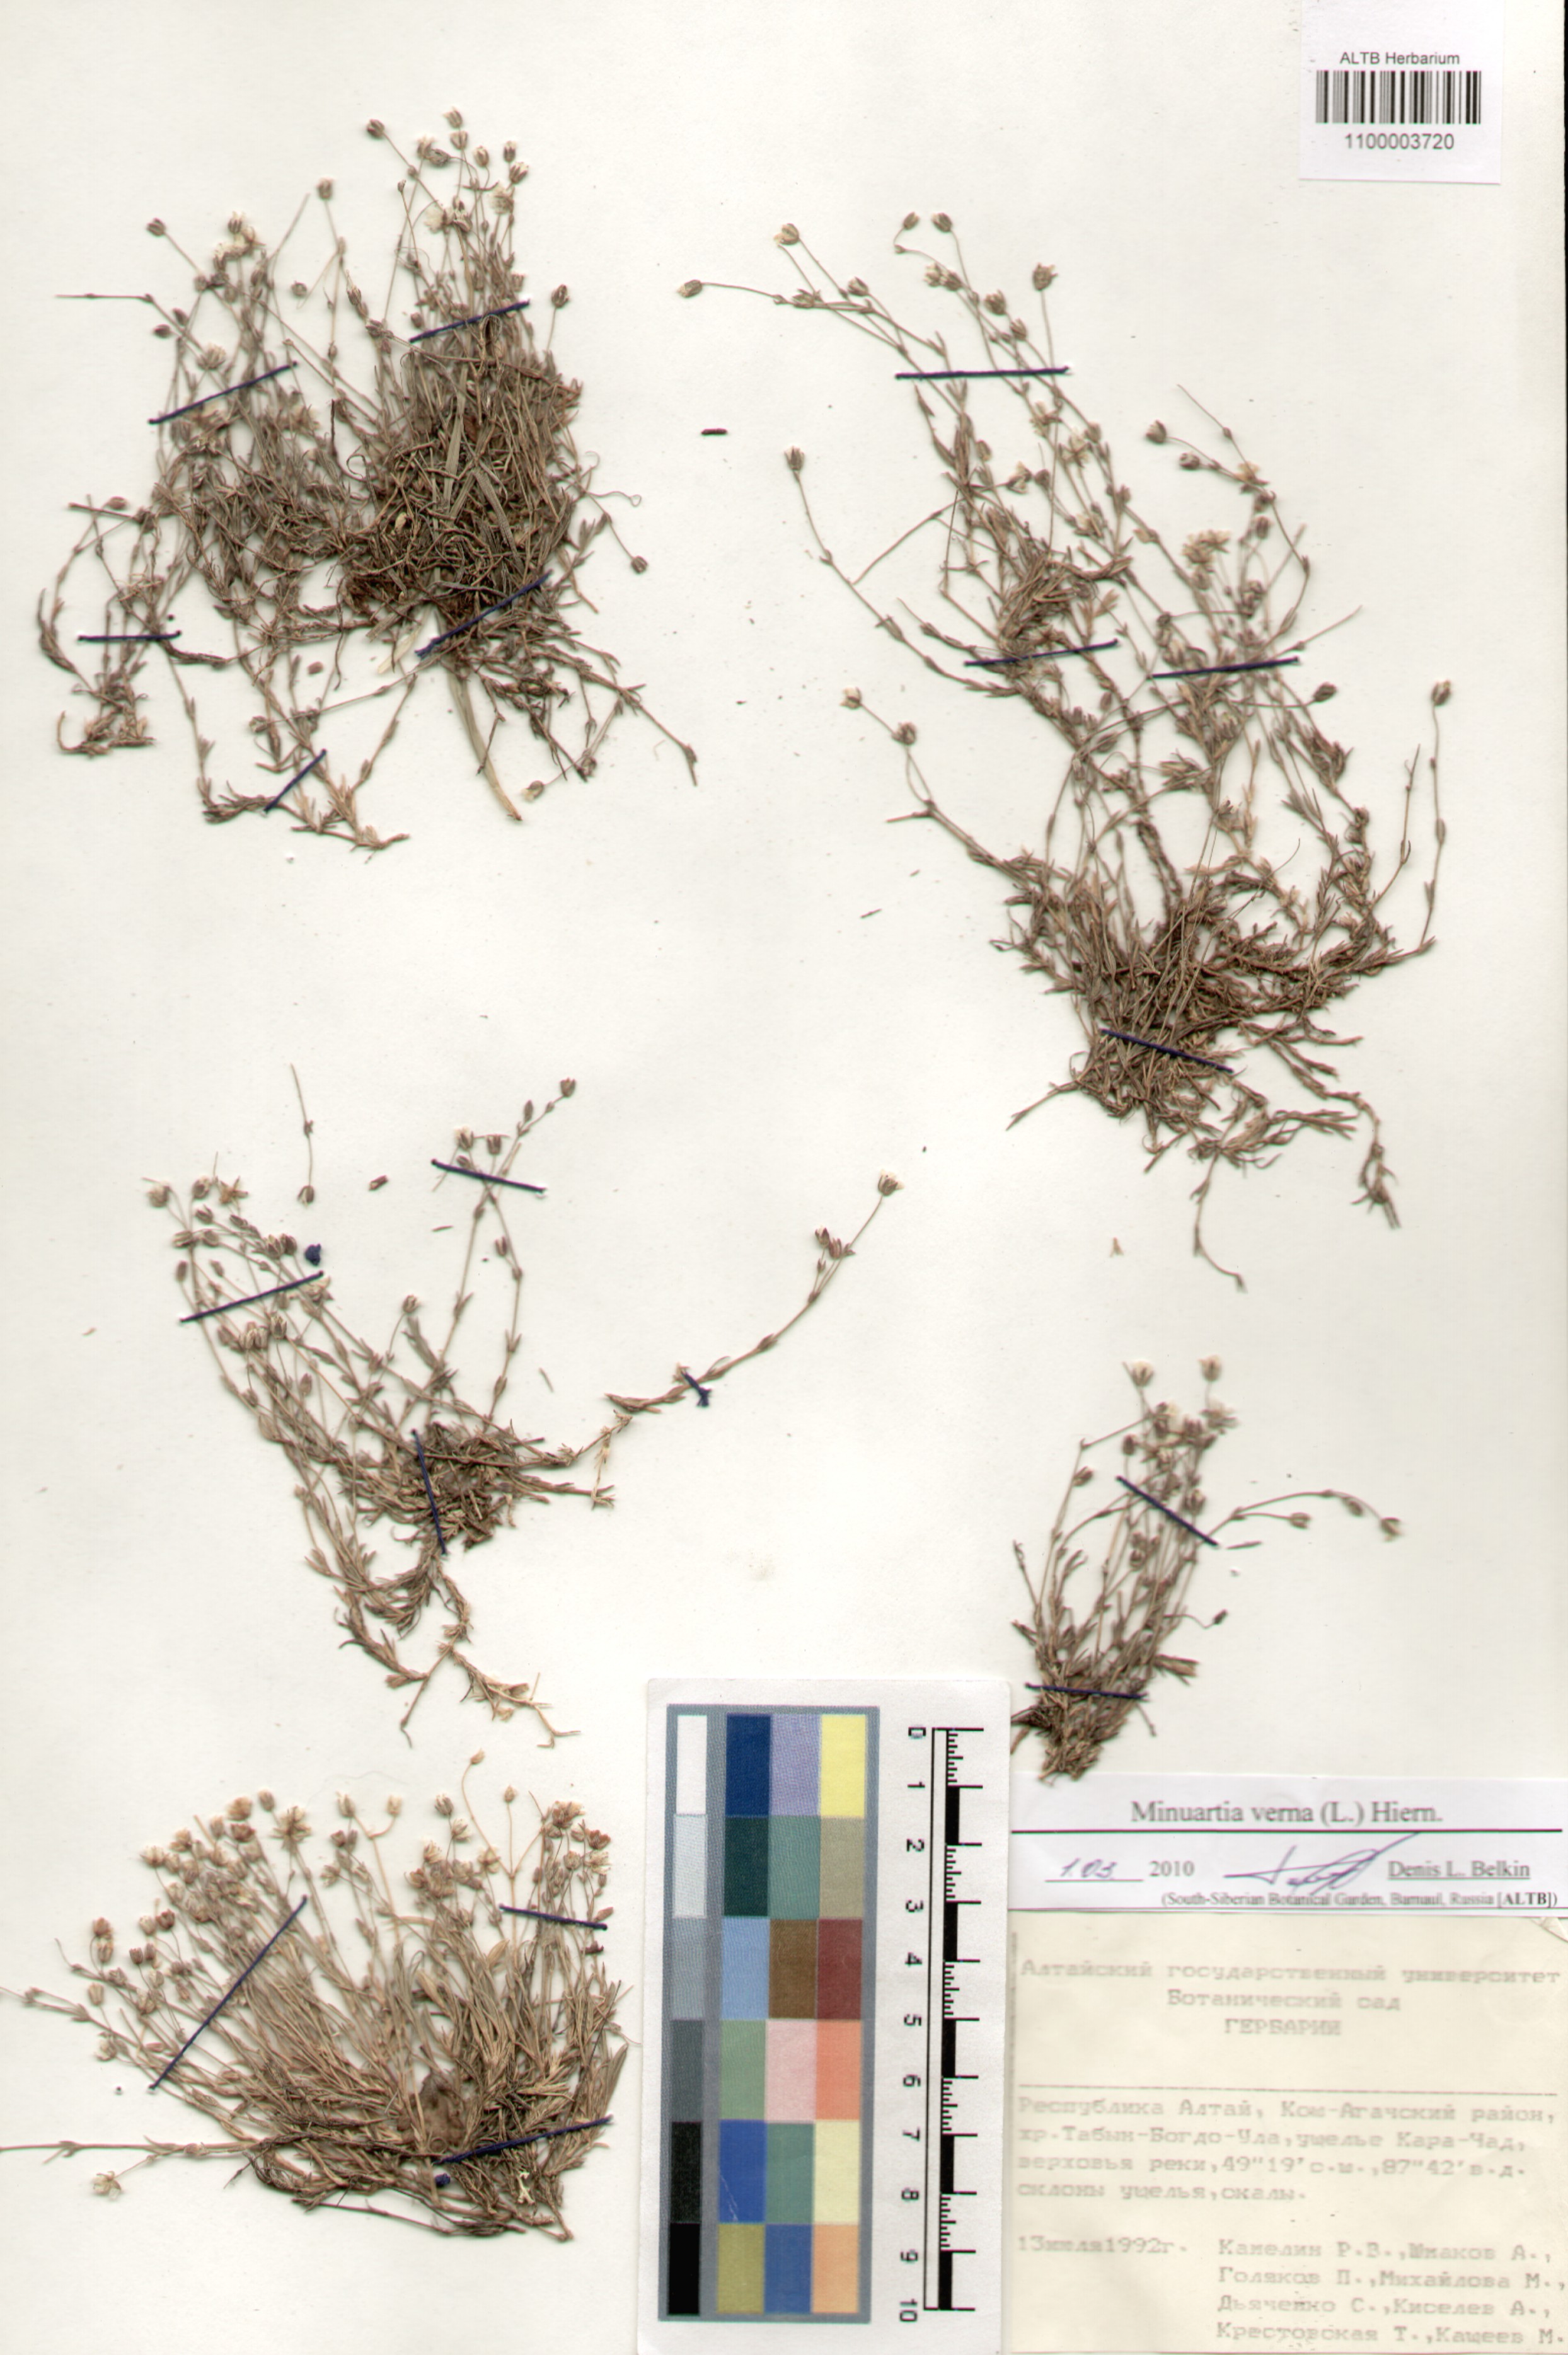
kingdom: Plantae
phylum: Tracheophyta
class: Magnoliopsida
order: Caryophyllales
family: Caryophyllaceae
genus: Sabulina
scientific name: Sabulina verna
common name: Spring sandwort
